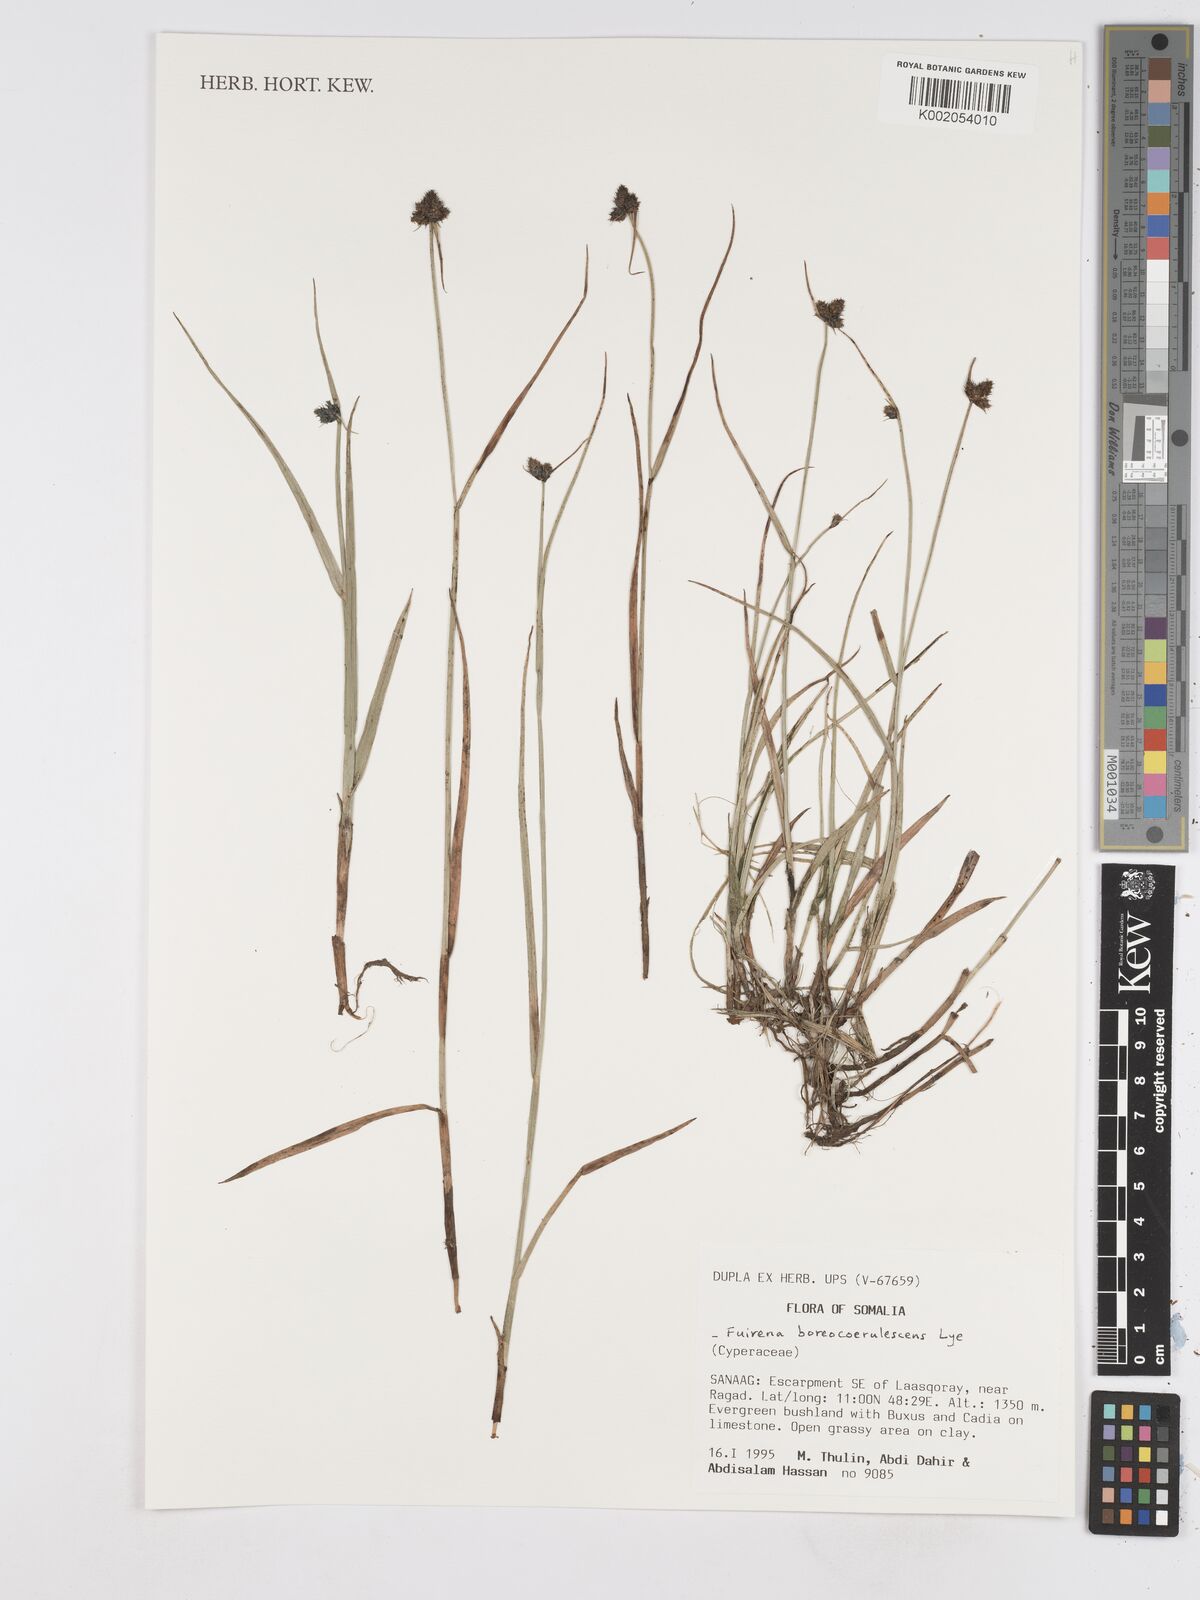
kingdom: Plantae
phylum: Tracheophyta
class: Liliopsida
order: Poales
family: Cyperaceae
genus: Fuirena
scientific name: Fuirena boreocoerulescens
